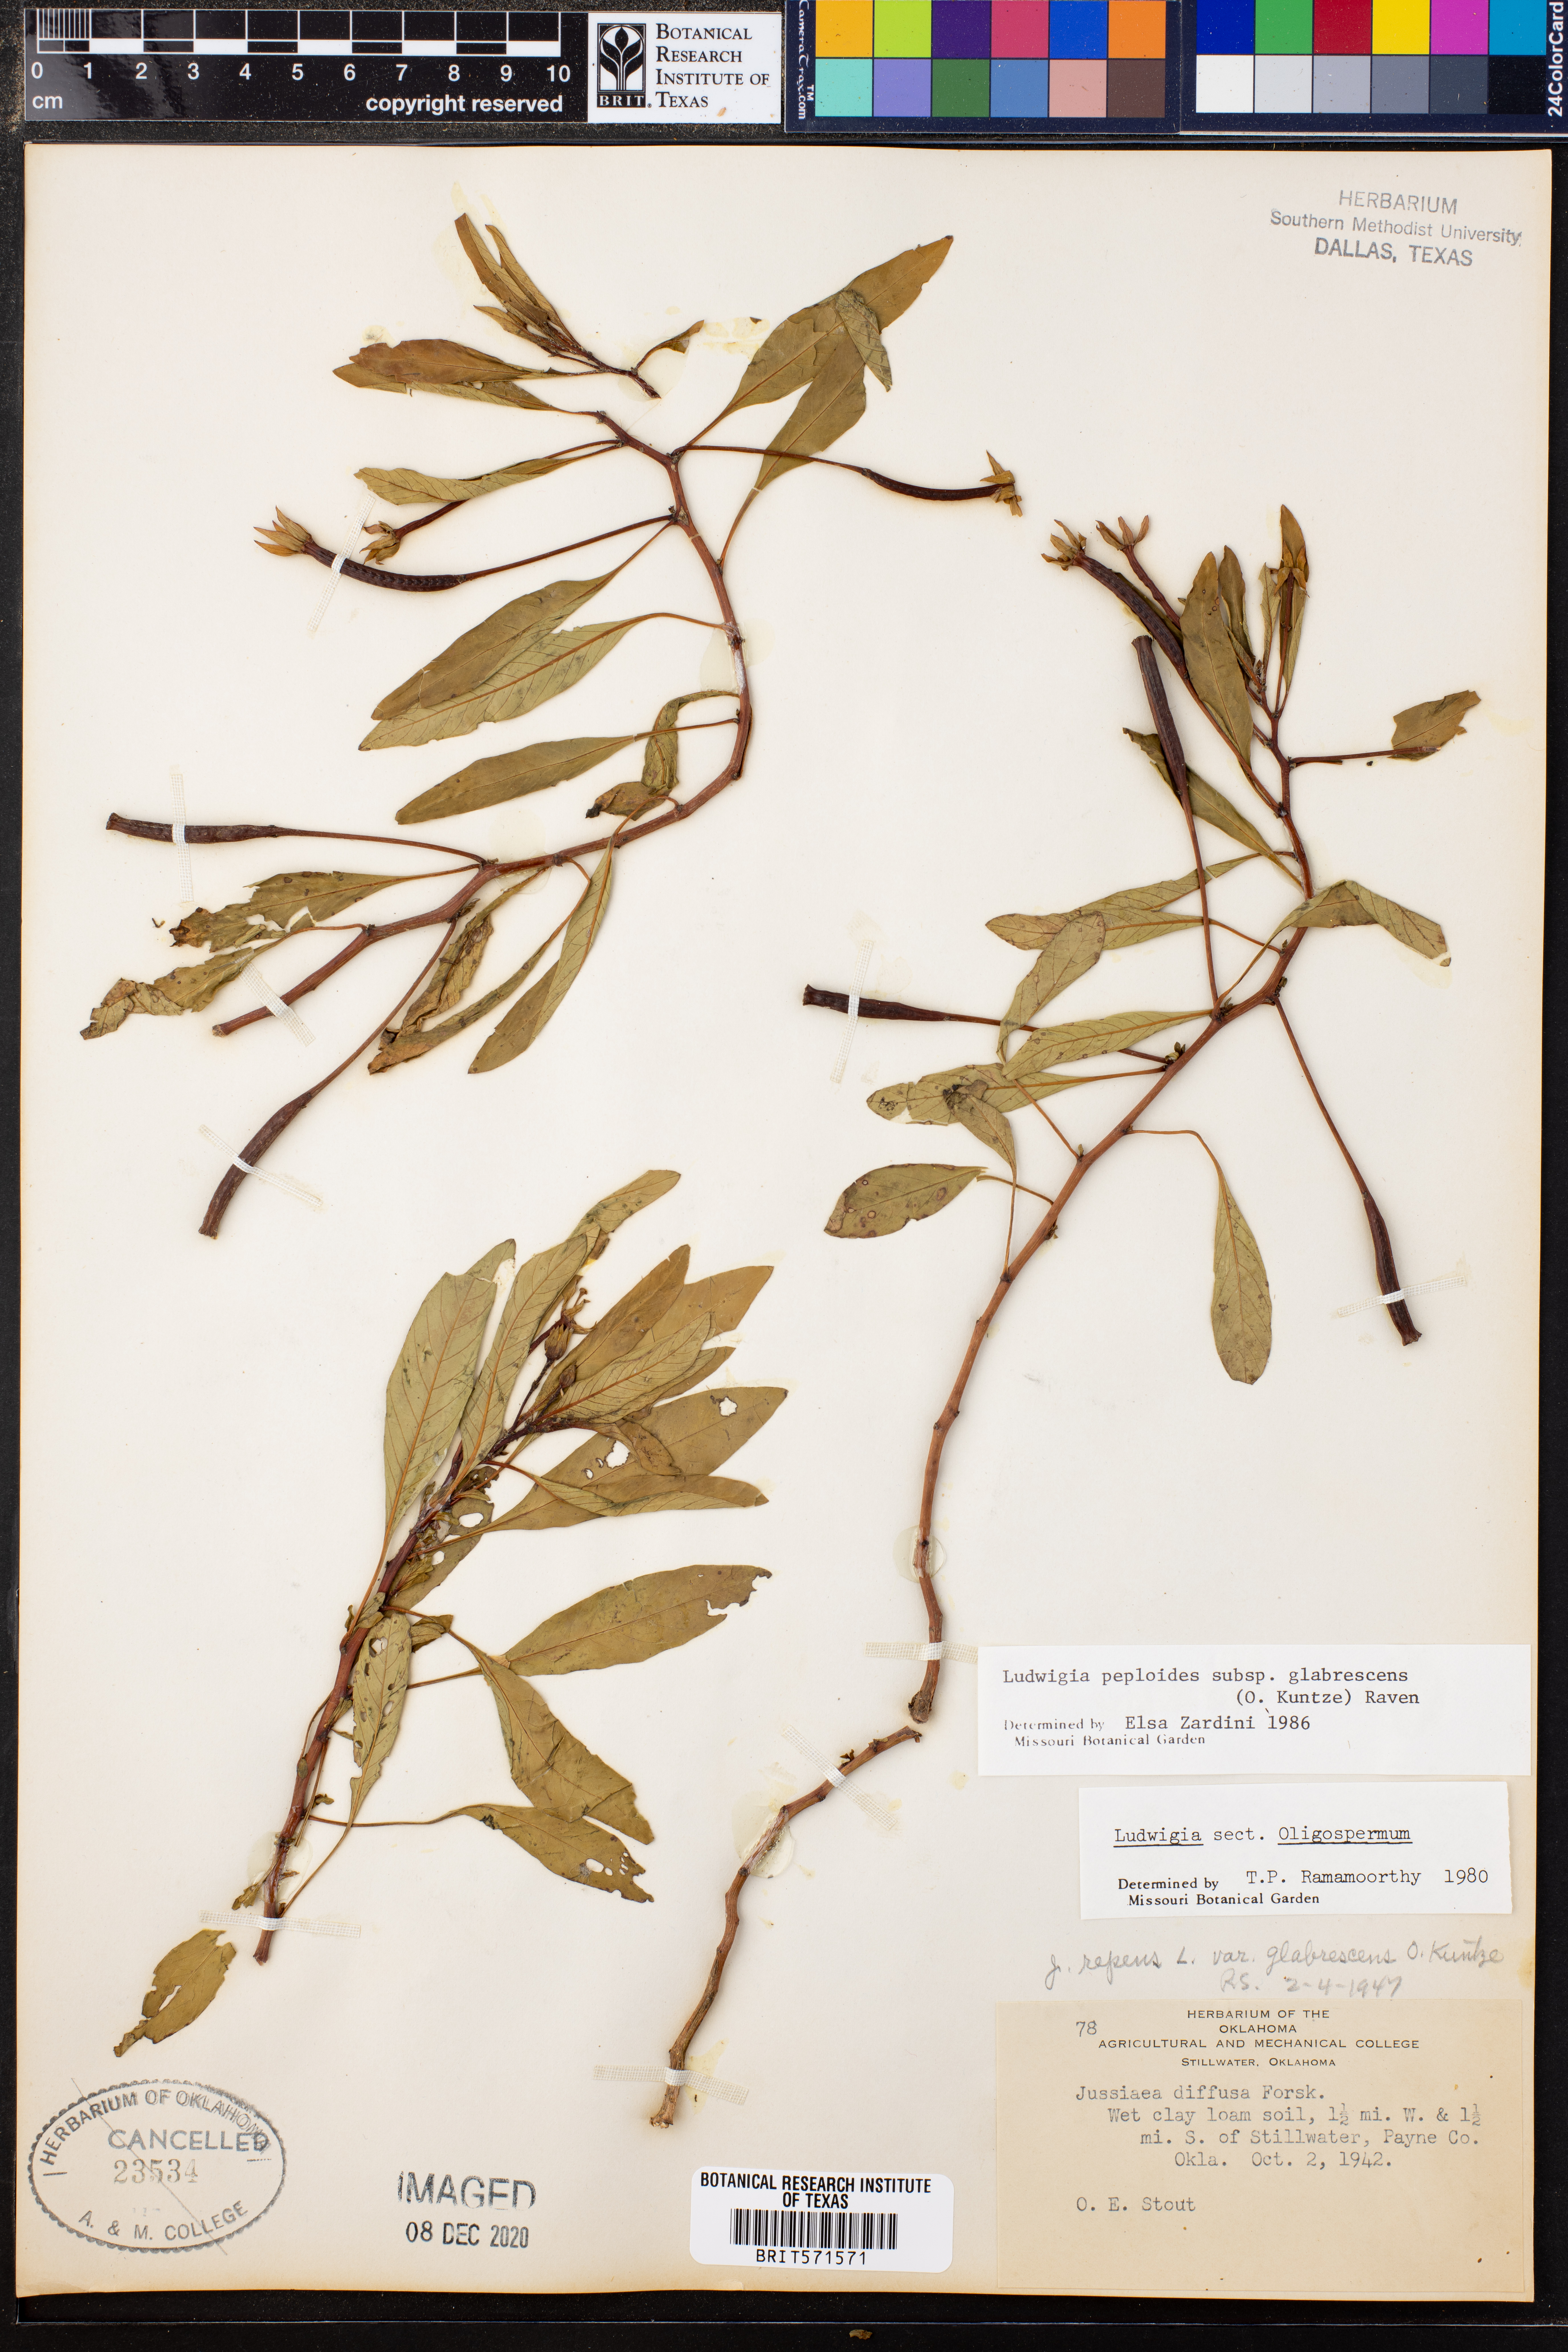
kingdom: Plantae
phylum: Tracheophyta
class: Magnoliopsida
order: Myrtales
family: Onagraceae
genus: Ludwigia
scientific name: Ludwigia peploides
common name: Floating primrose-willow
